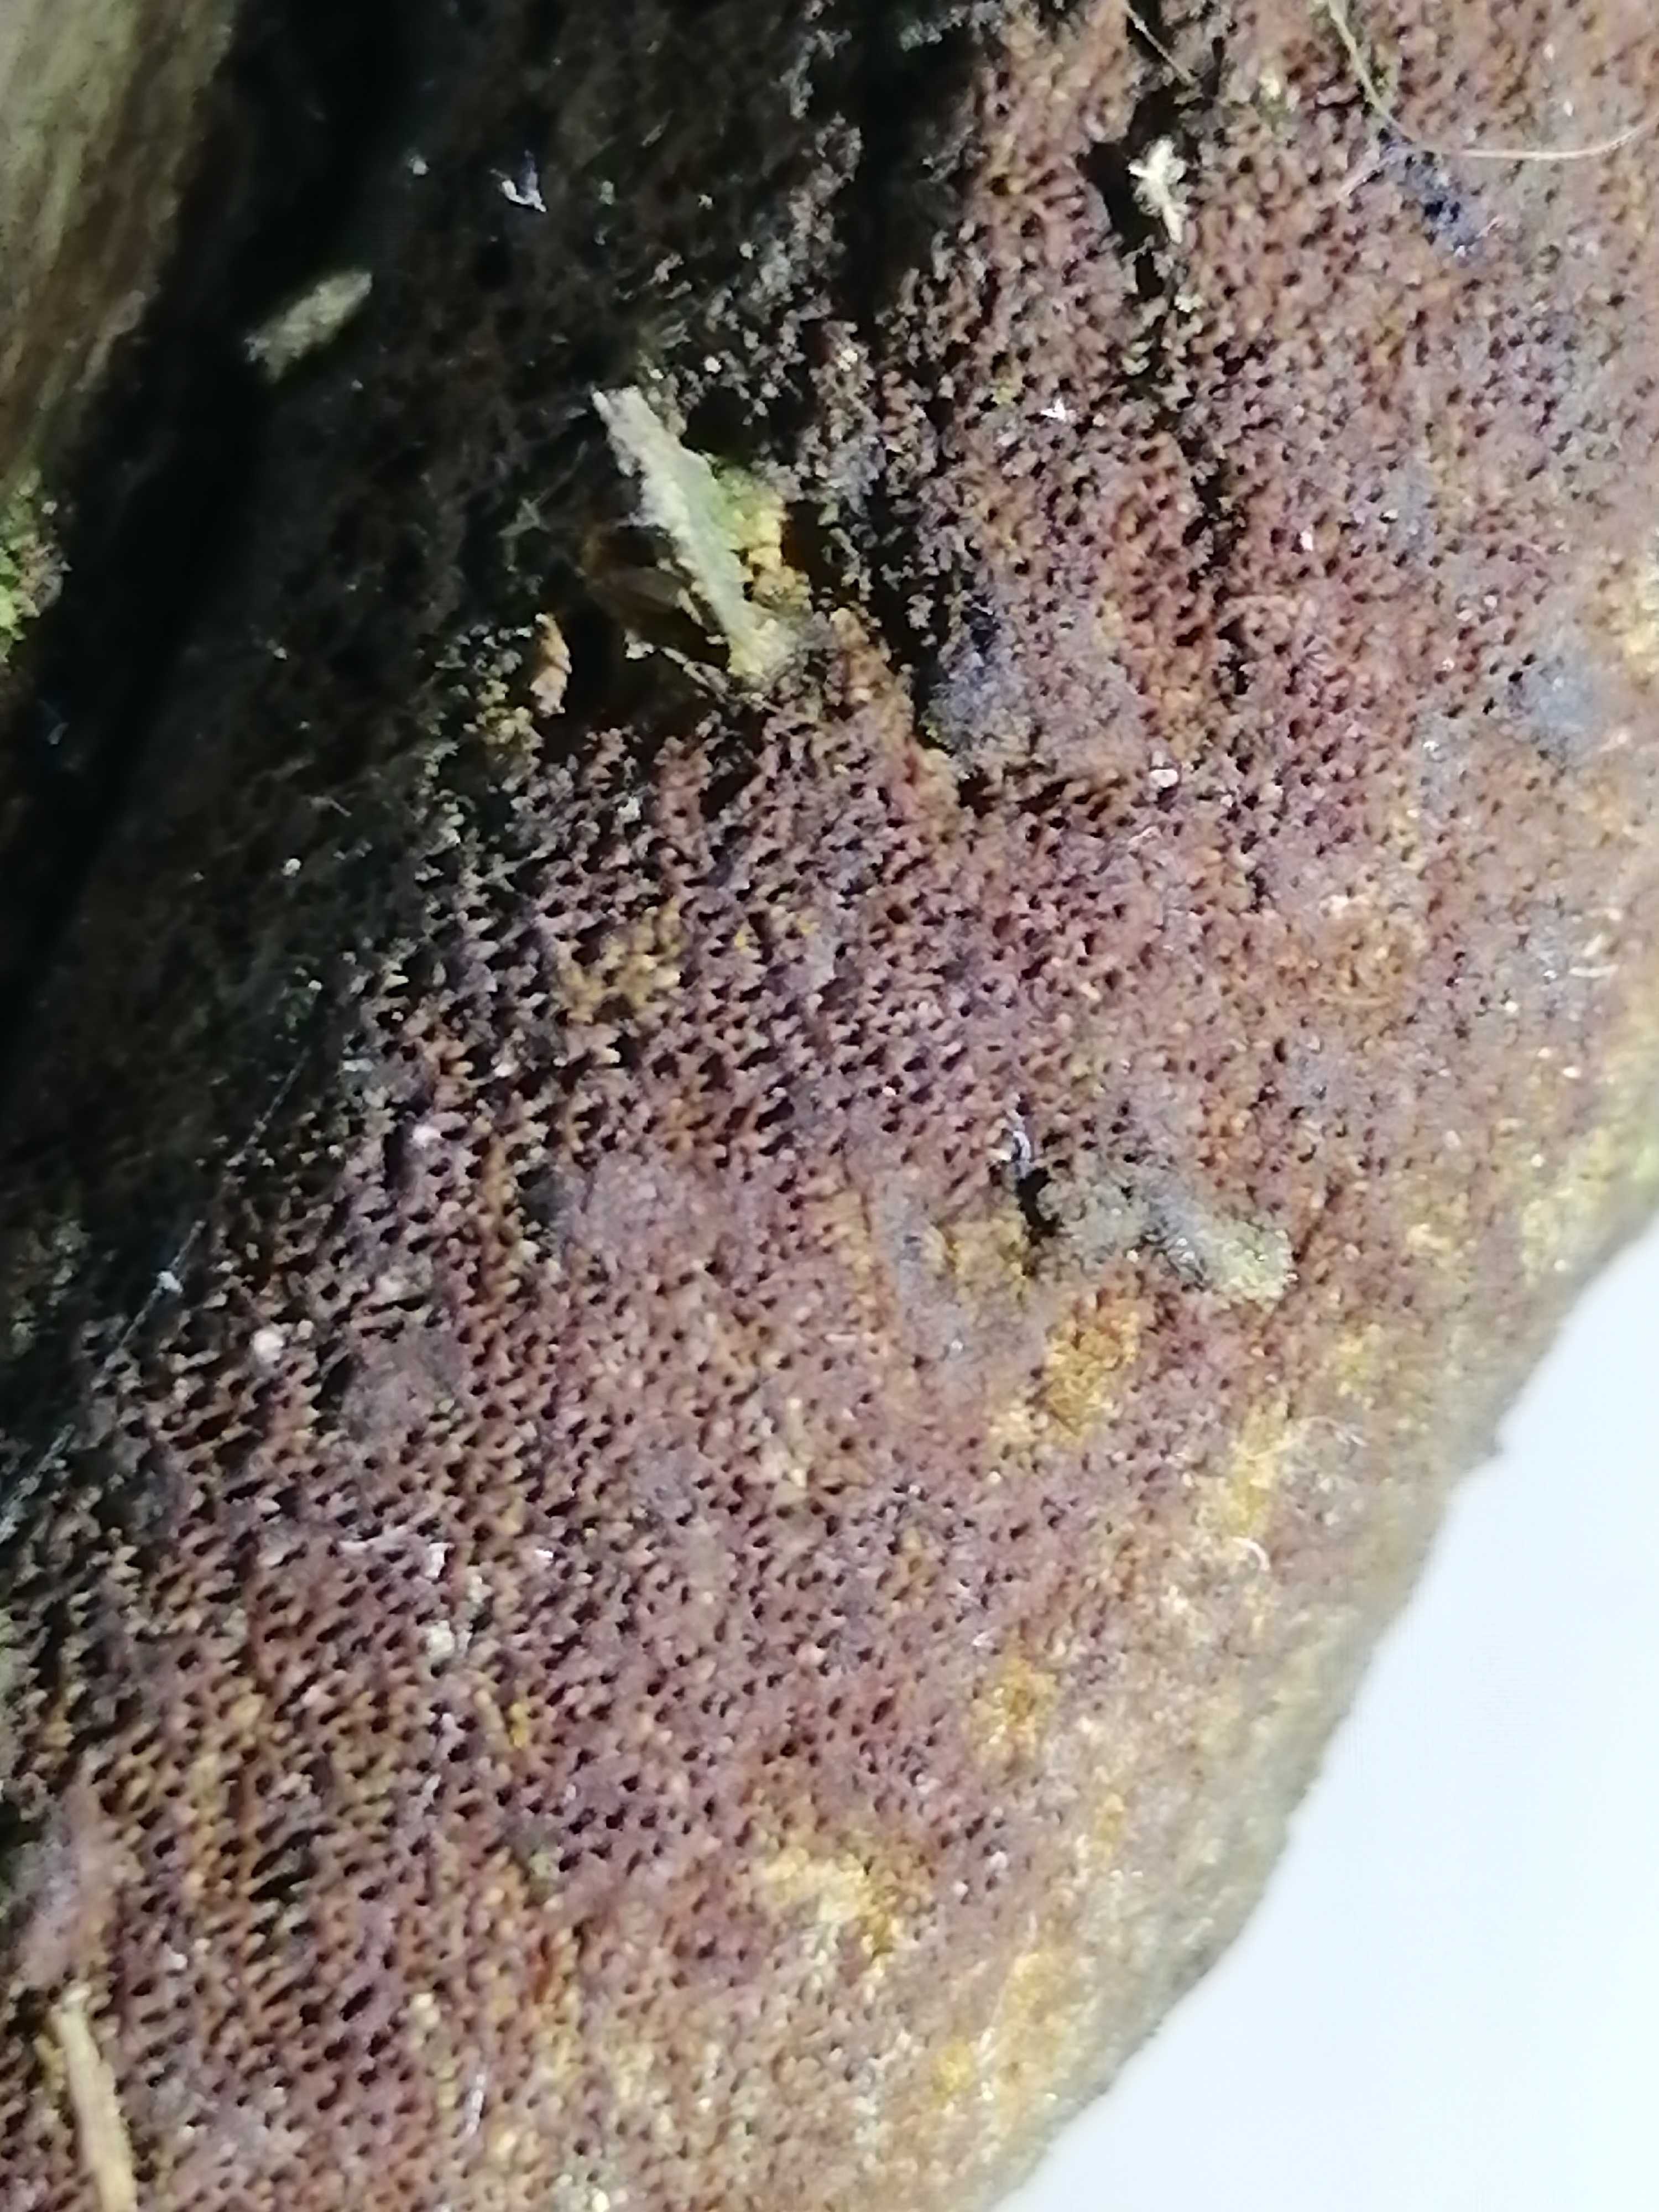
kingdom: Fungi
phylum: Basidiomycota
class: Agaricomycetes
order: Hymenochaetales
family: Hymenochaetaceae
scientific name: Hymenochaetaceae
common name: børstesvampfamilien
